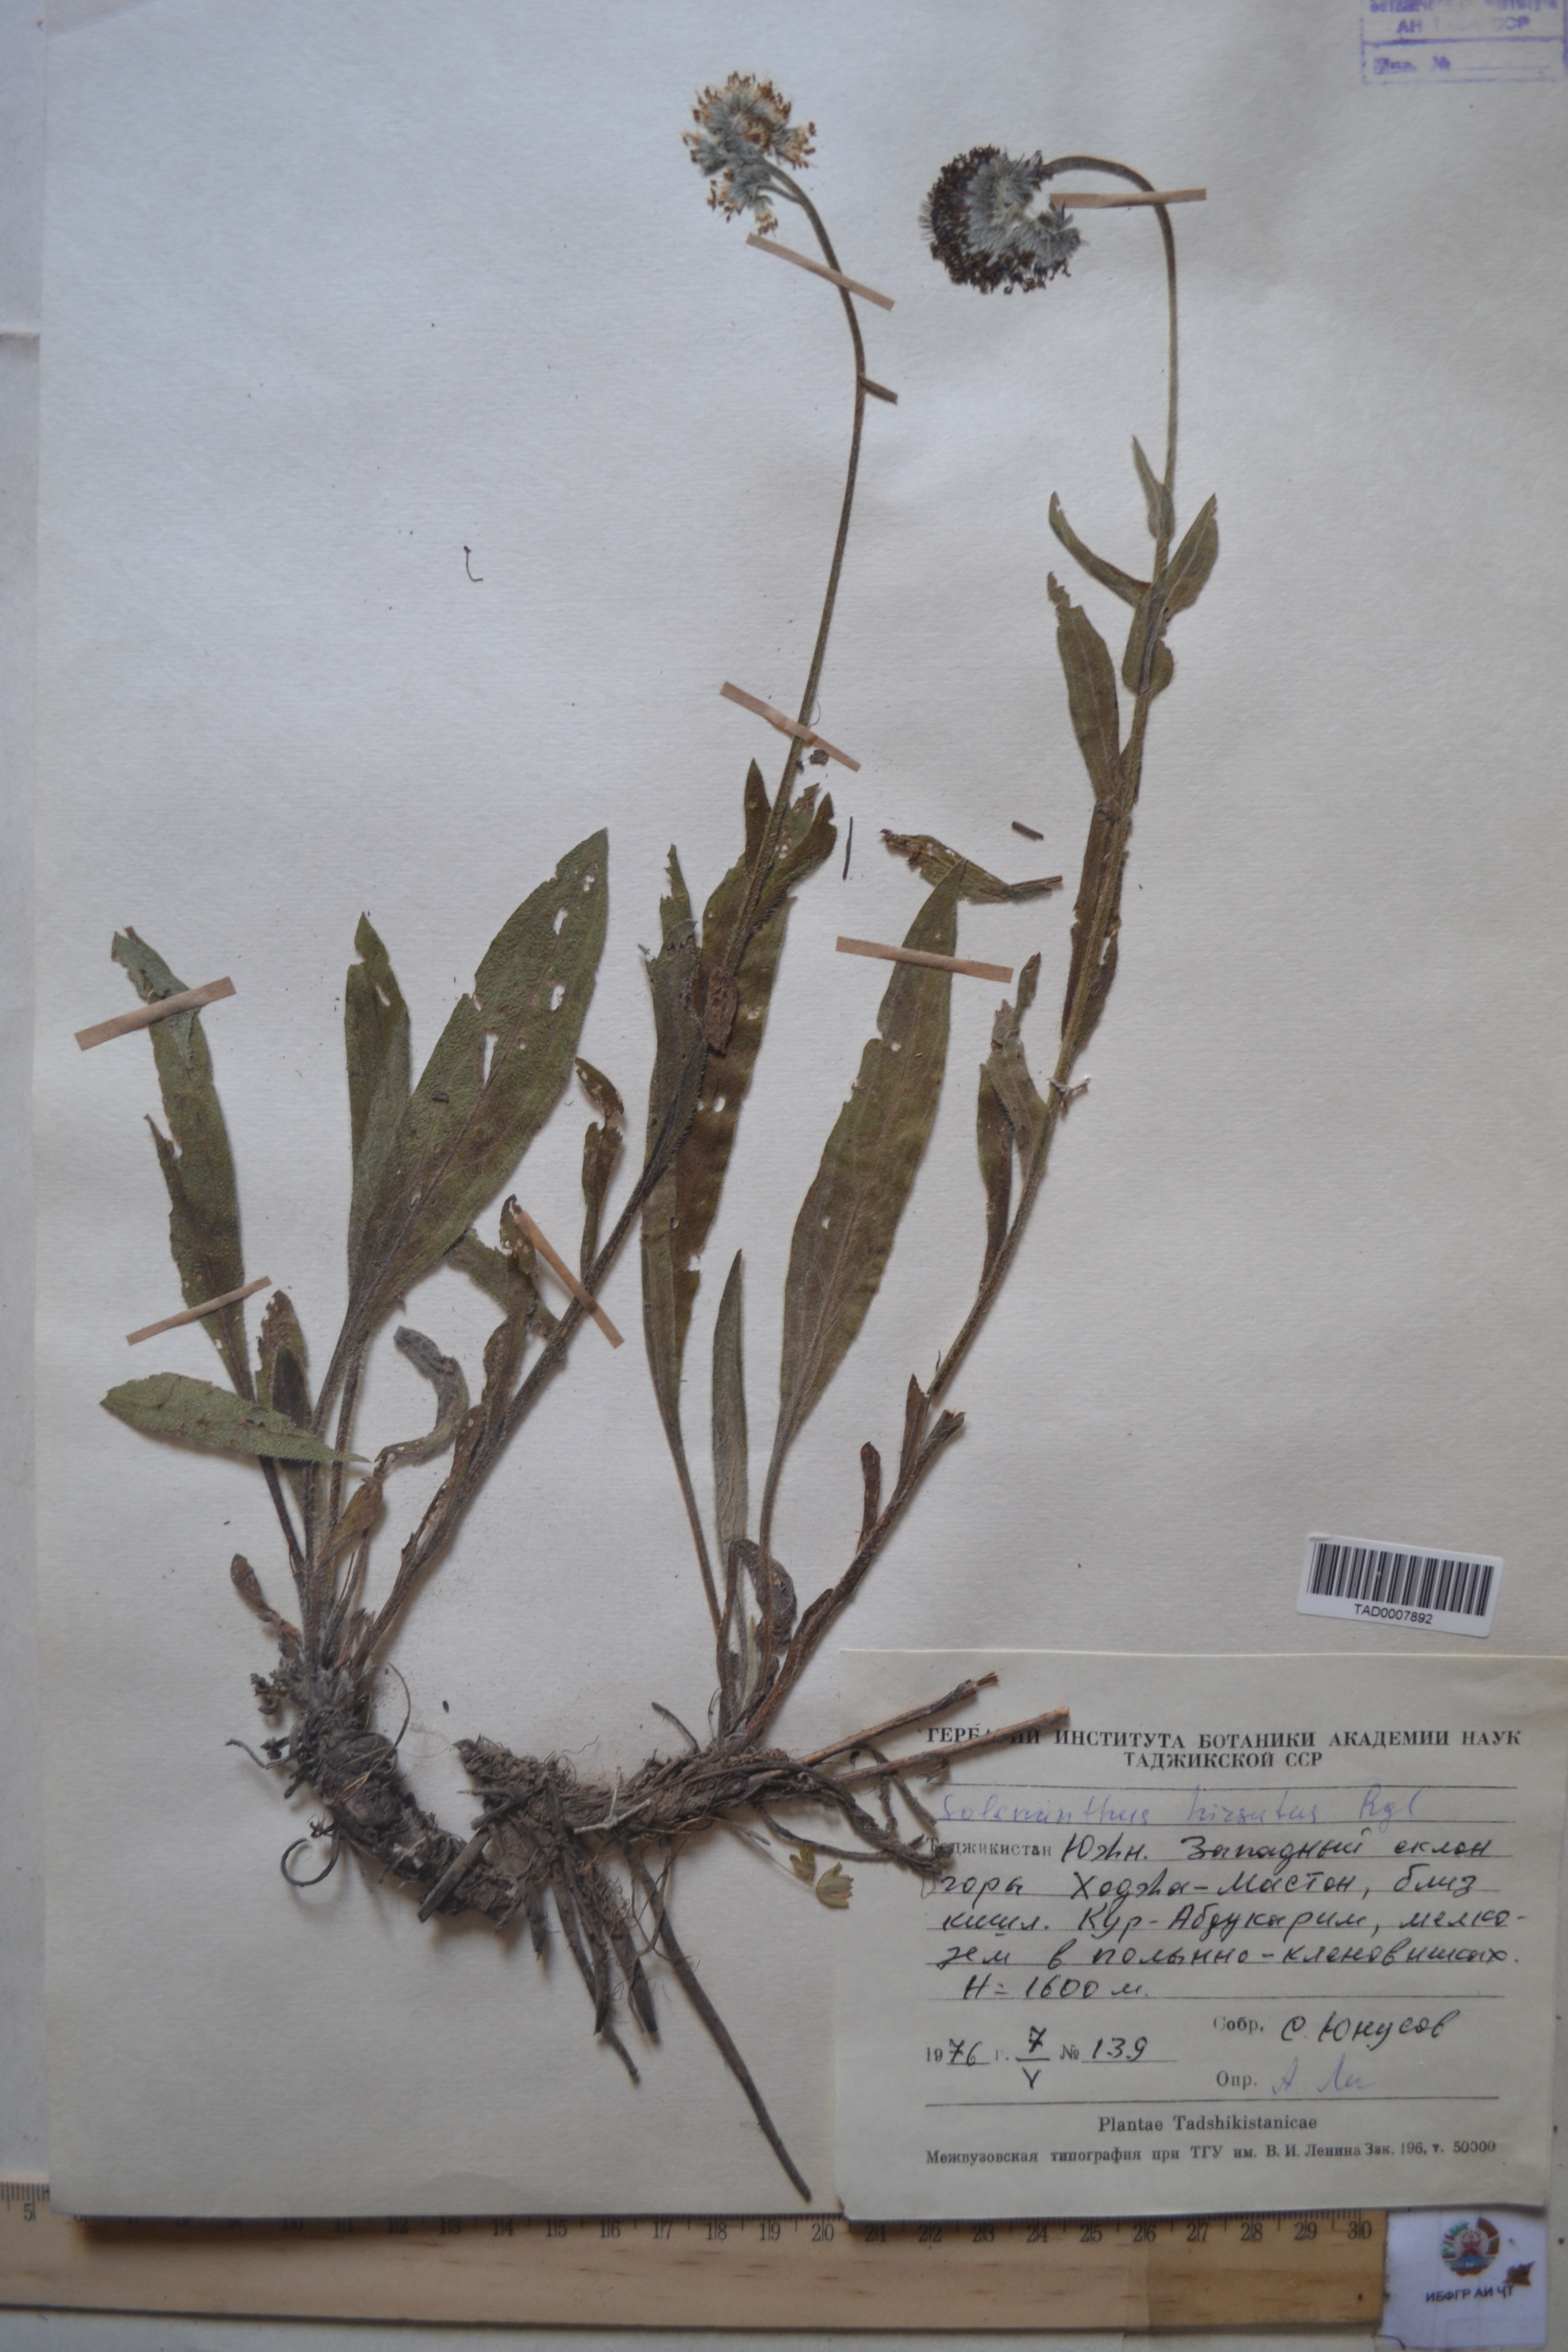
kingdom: Plantae
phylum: Tracheophyta
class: Magnoliopsida
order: Boraginales
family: Boraginaceae
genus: Solenanthus
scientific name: Solenanthus hirsutus
